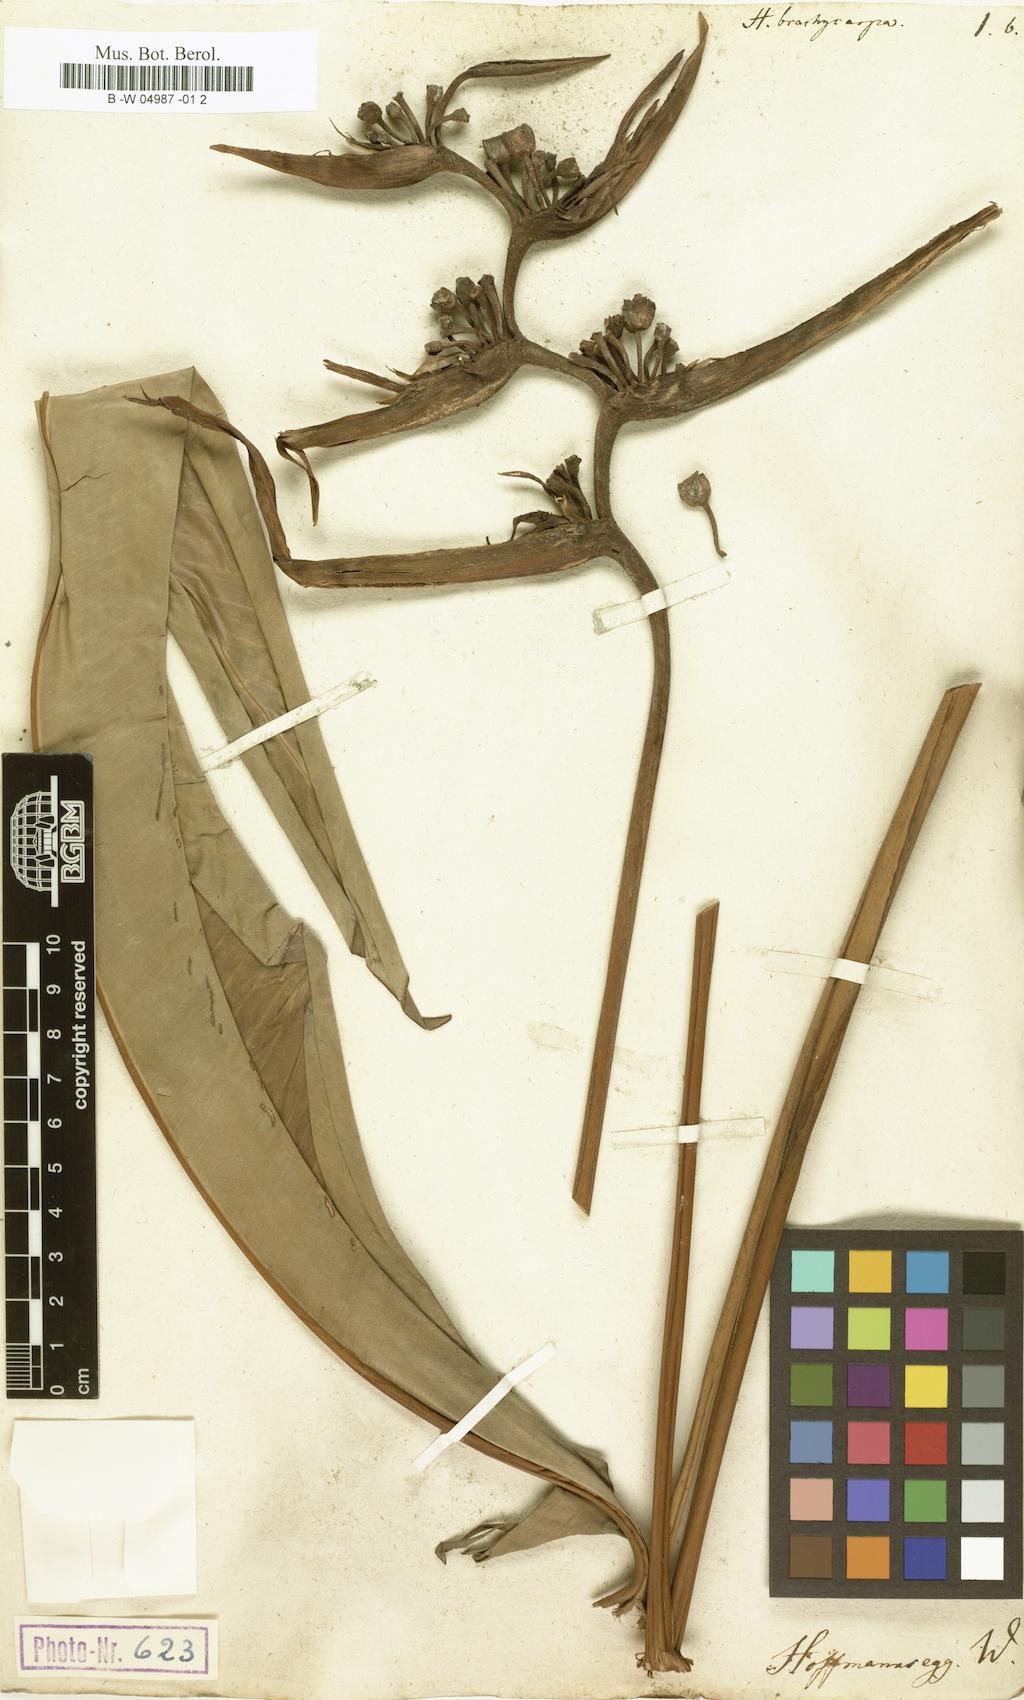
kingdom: Plantae
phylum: Tracheophyta
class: Liliopsida
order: Zingiberales
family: Heliconiaceae
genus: Heliconia
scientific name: Heliconia
